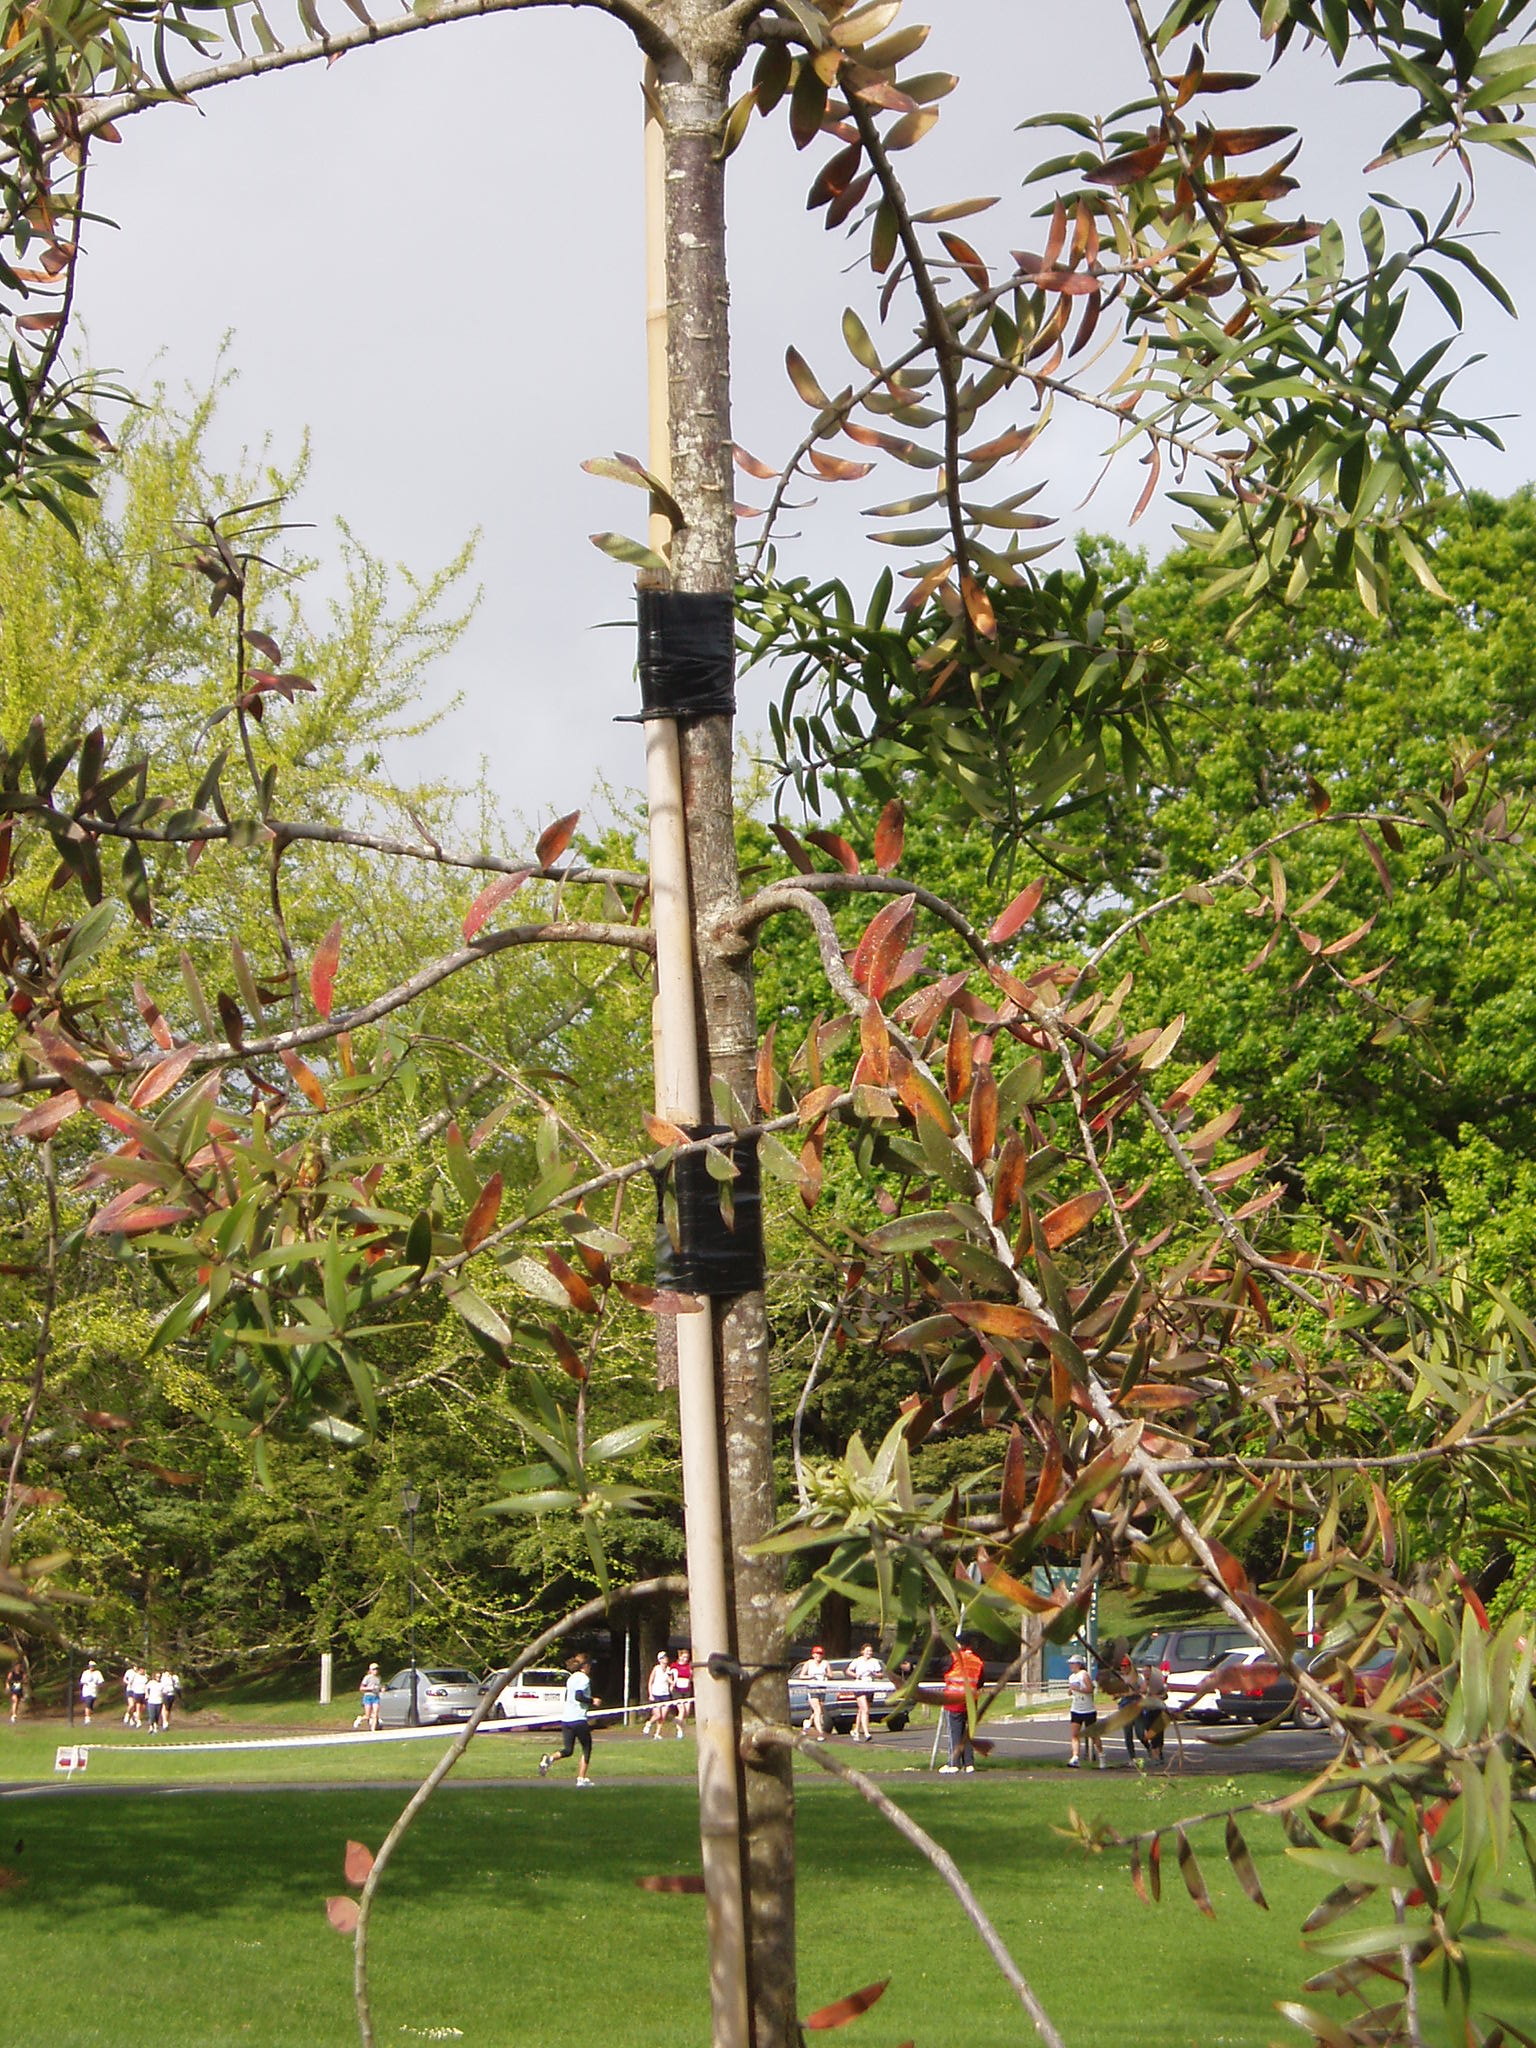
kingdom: Plantae
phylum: Tracheophyta
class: Pinopsida
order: Pinales
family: Araucariaceae
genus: Agathis
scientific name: Agathis lanceolata
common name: Koghis kauri
